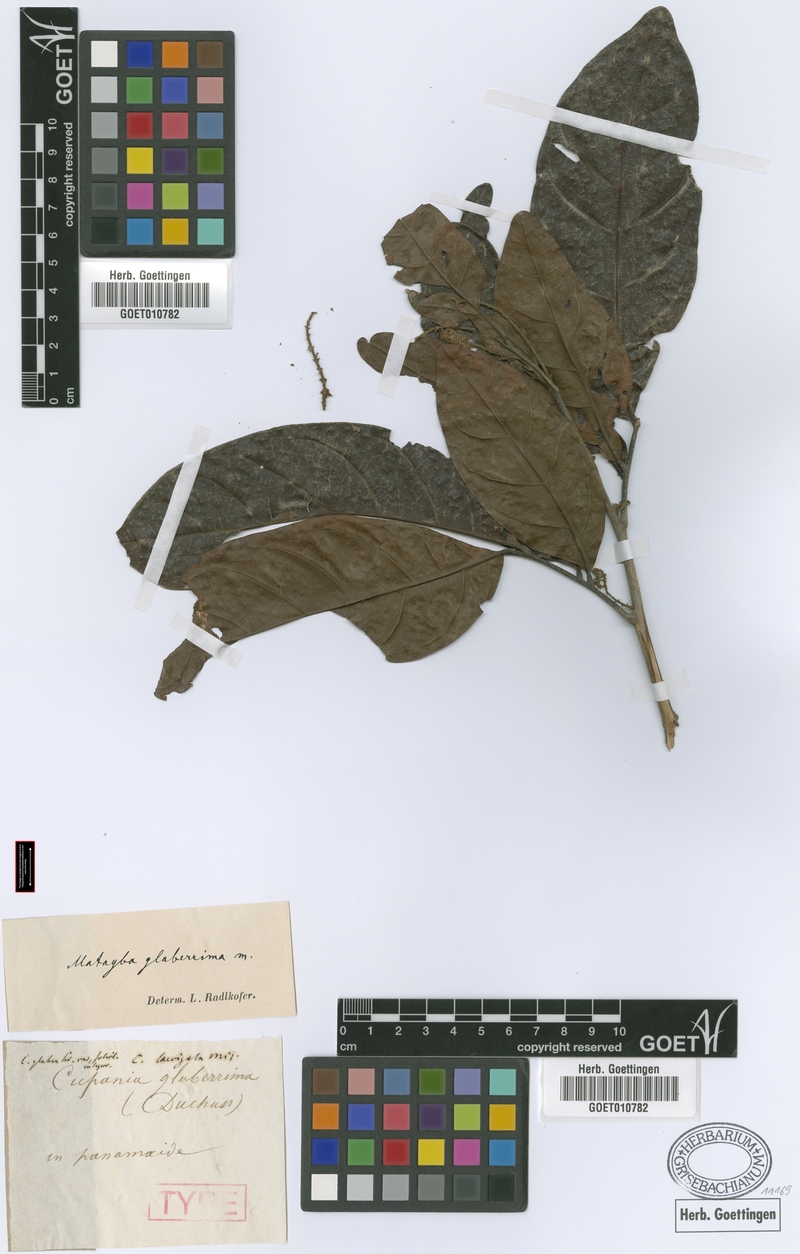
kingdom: Plantae
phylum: Tracheophyta
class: Magnoliopsida
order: Sapindales
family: Sapindaceae
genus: Matayba
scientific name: Matayba glaberrima
